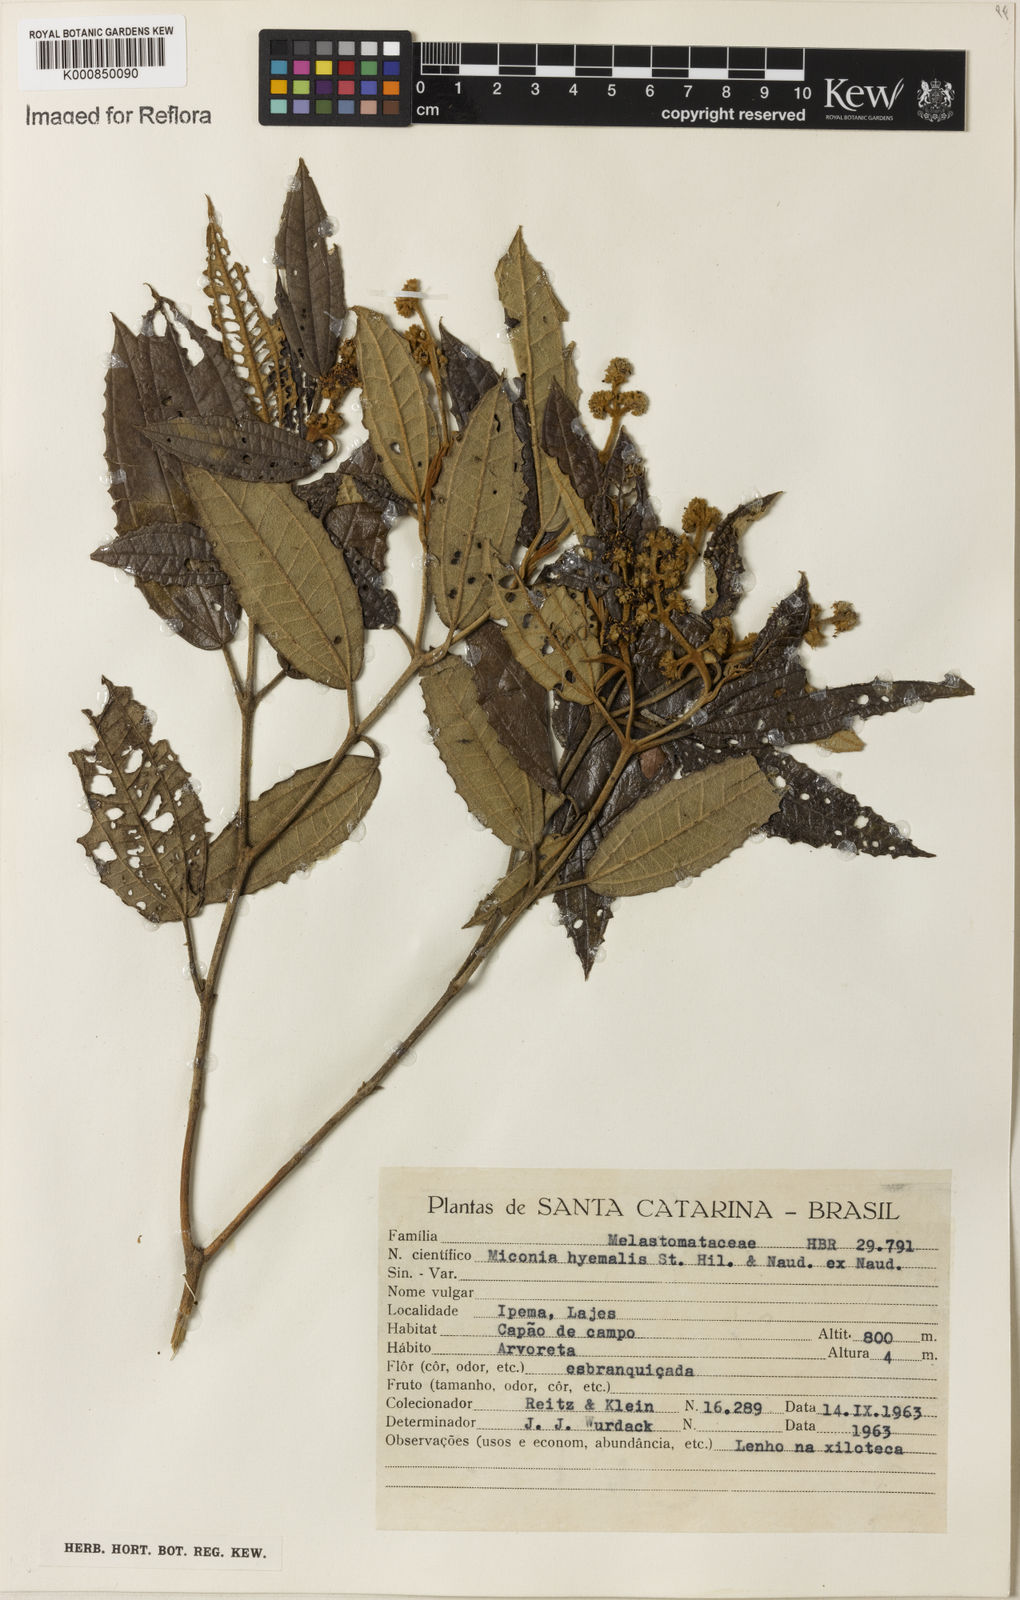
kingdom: Plantae
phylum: Tracheophyta
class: Magnoliopsida
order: Myrtales
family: Melastomataceae
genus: Miconia
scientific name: Miconia hyemalis
